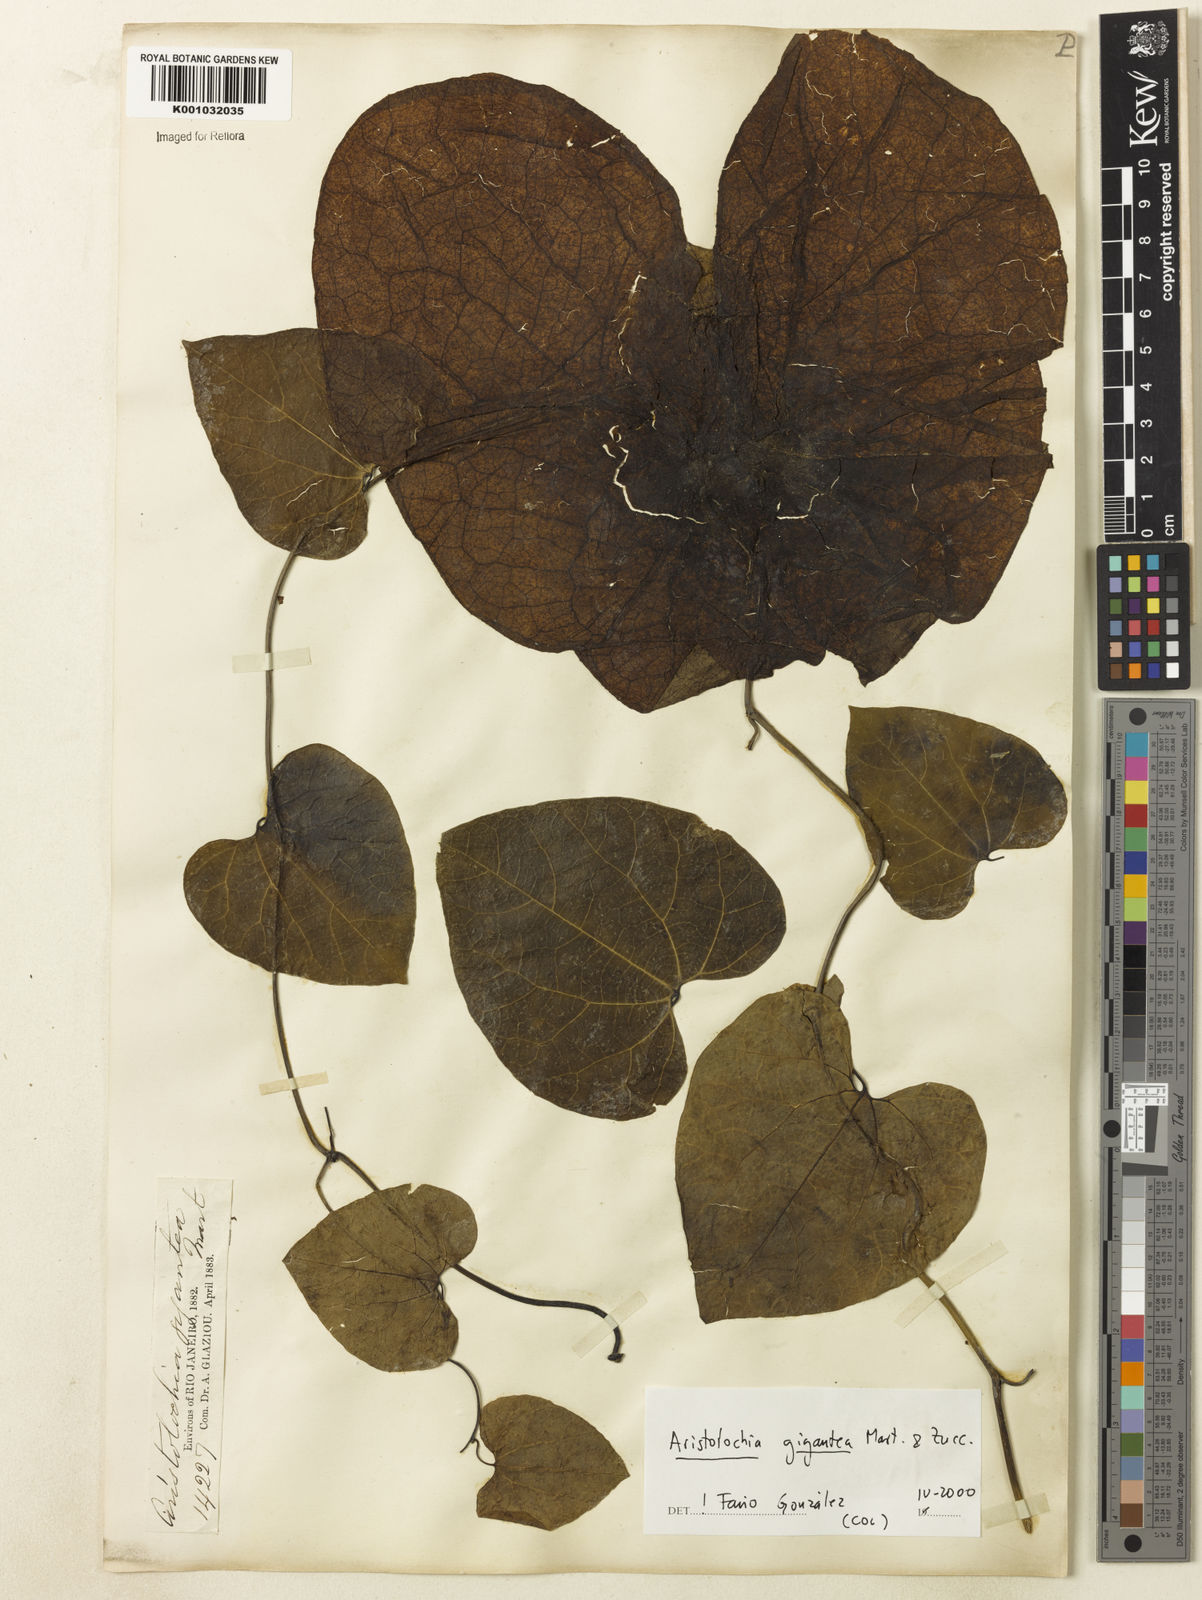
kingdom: Plantae
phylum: Tracheophyta
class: Magnoliopsida
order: Piperales
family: Aristolochiaceae
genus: Aristolochia
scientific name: Aristolochia gigantea
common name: Duckflower
